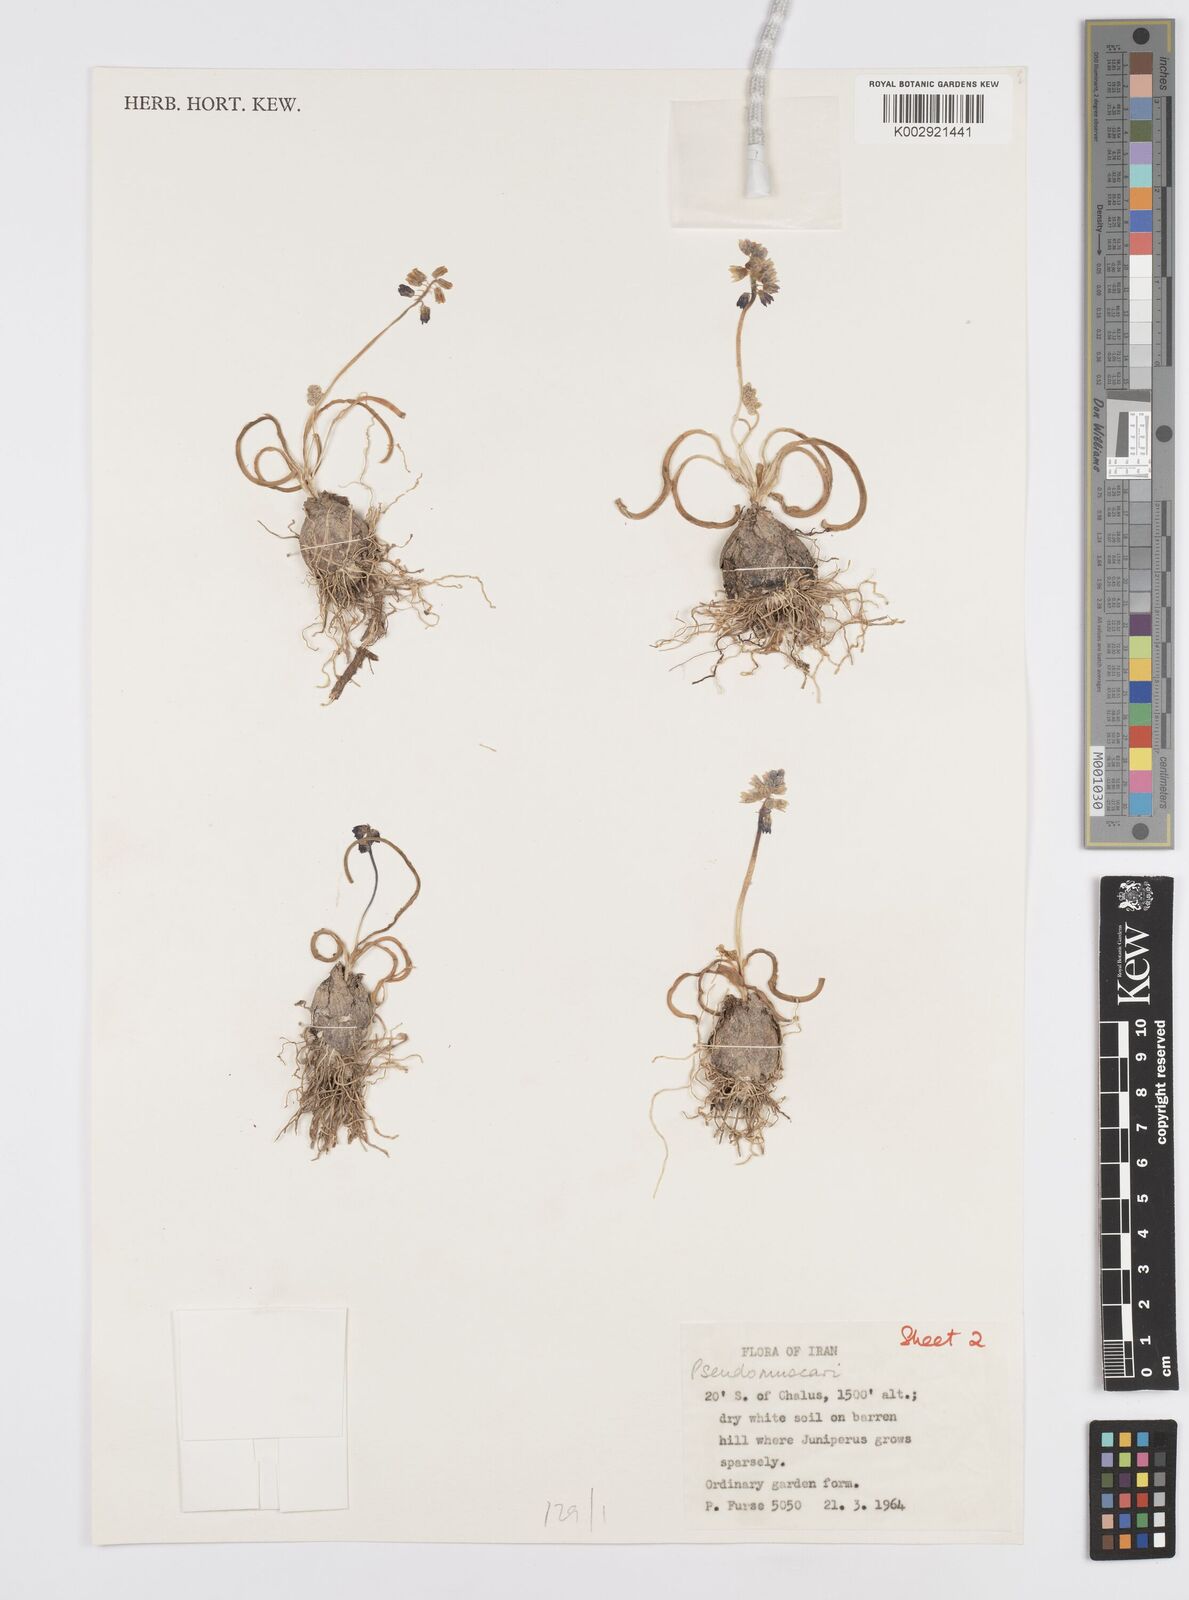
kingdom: Plantae
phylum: Tracheophyta
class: Liliopsida
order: Asparagales
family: Asparagaceae
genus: Muscari
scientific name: Muscari
